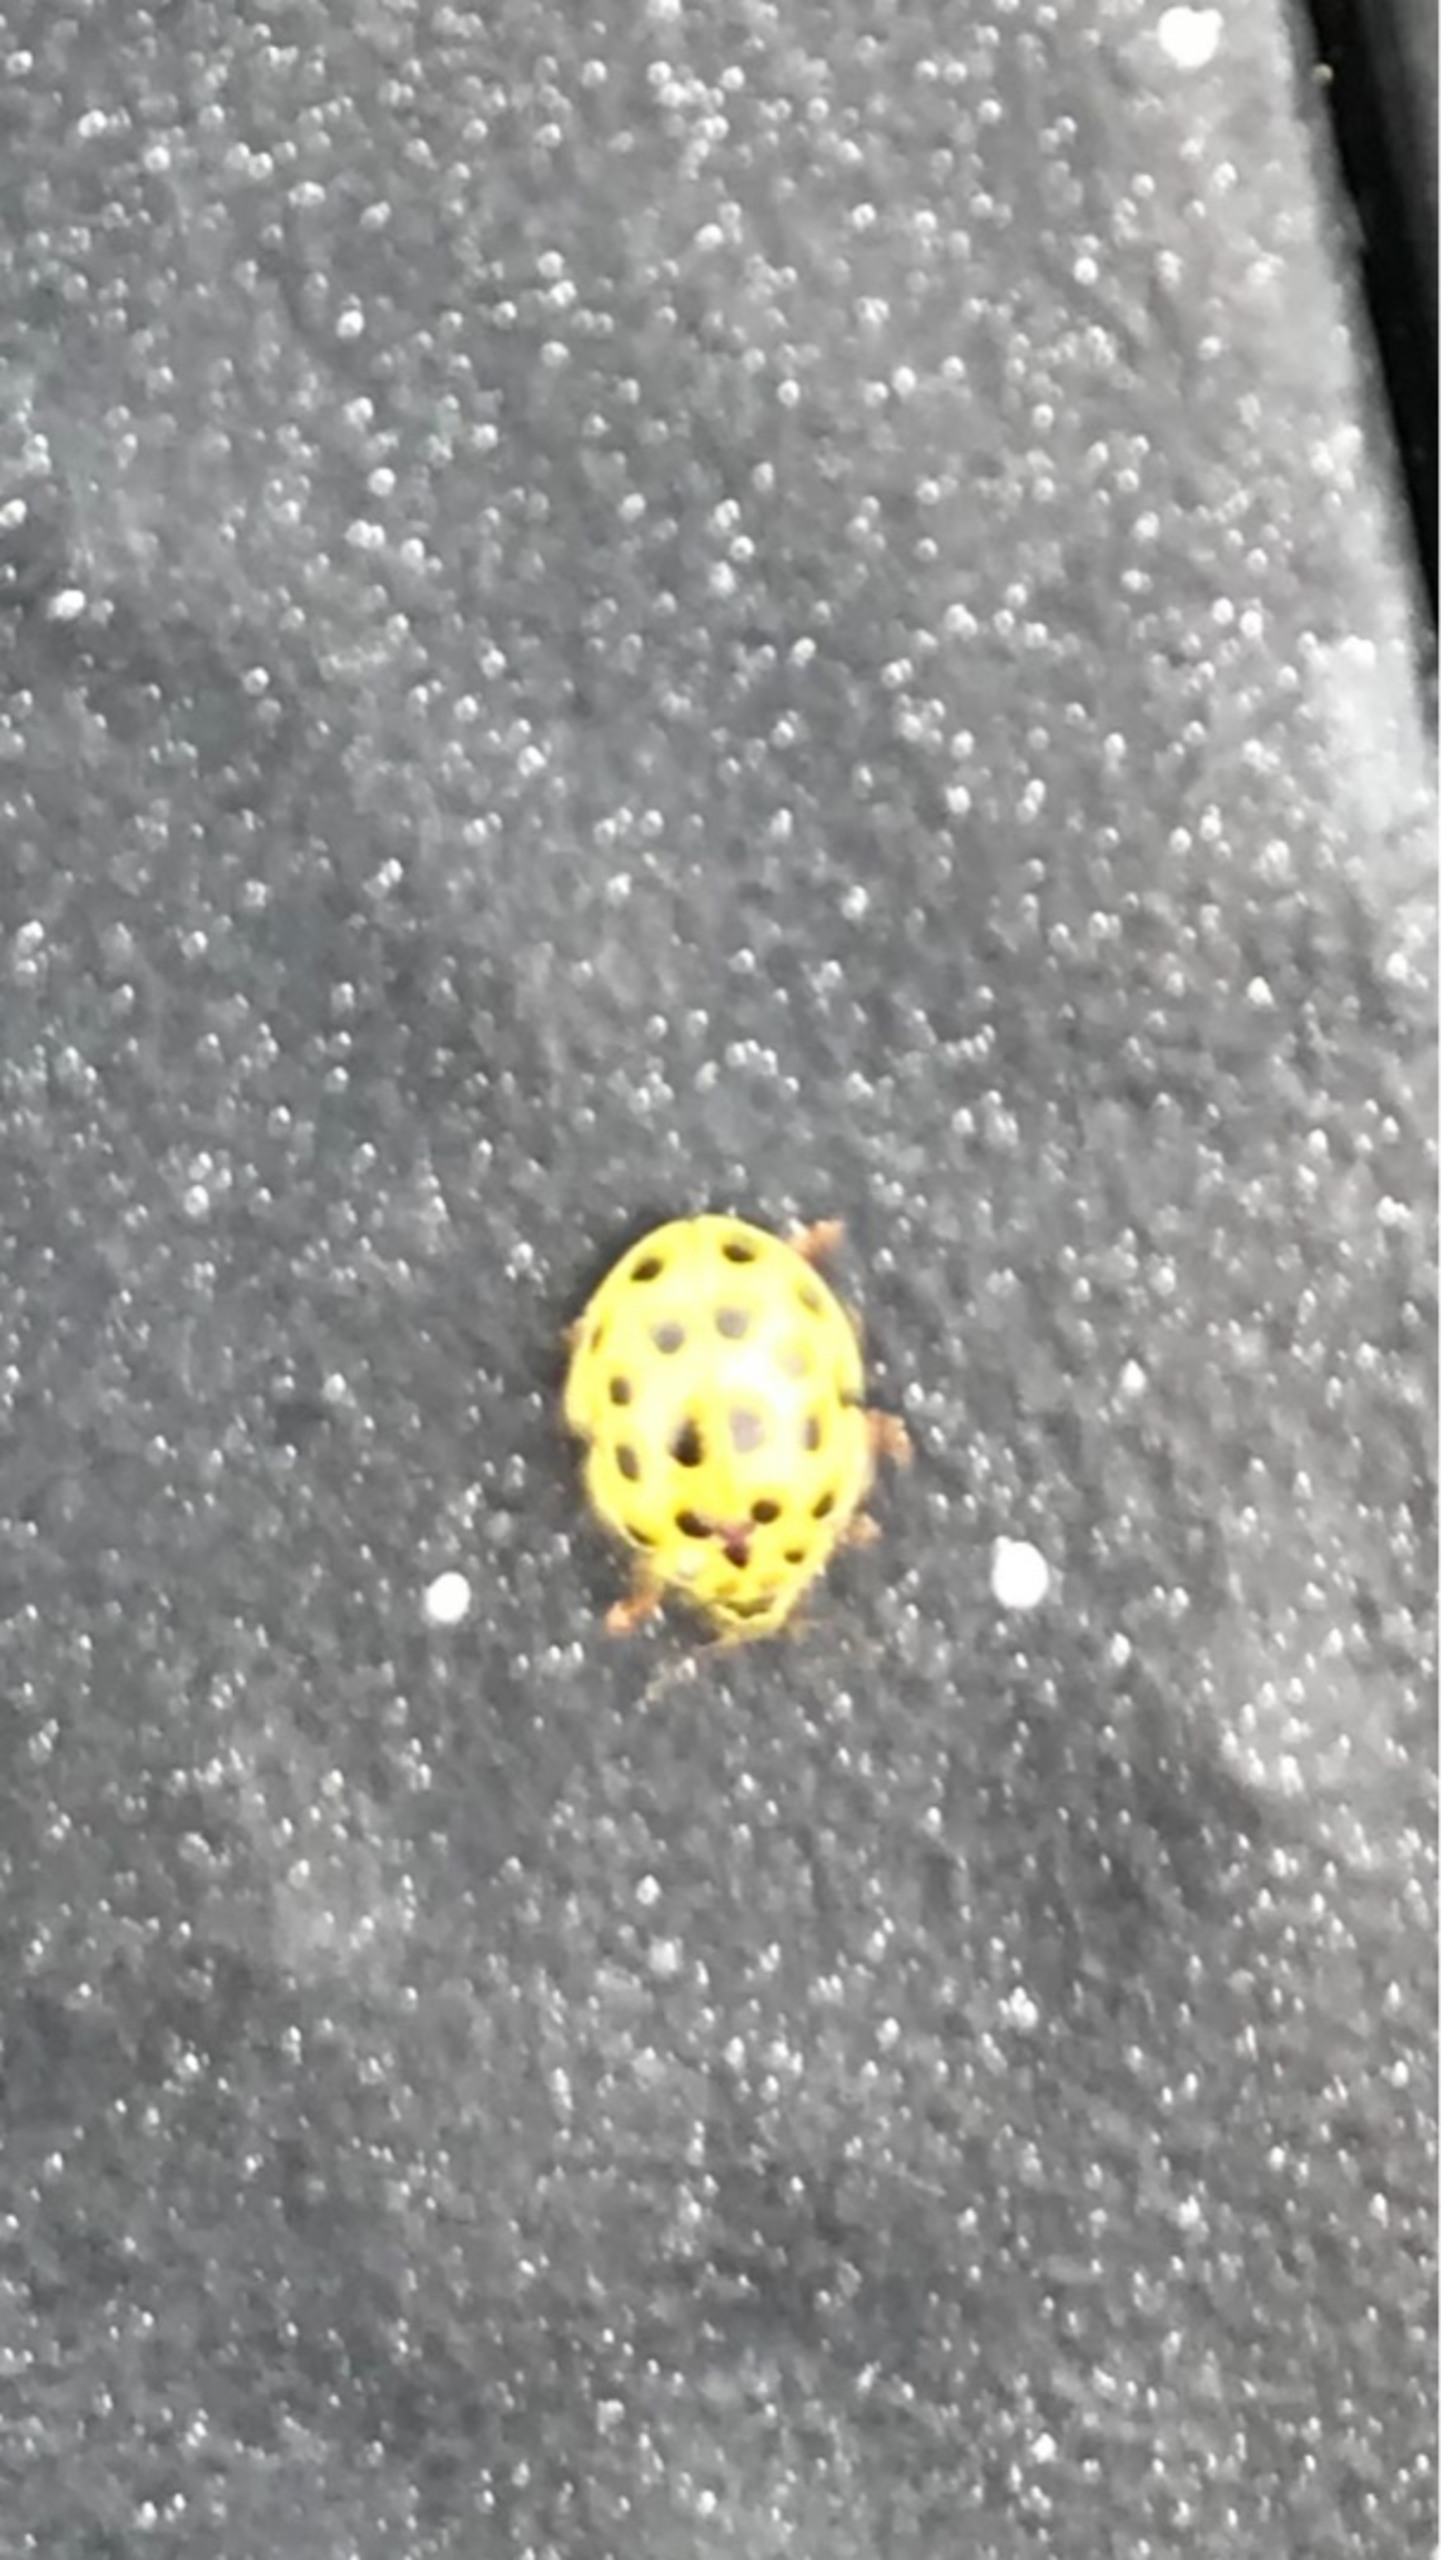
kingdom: Animalia
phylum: Arthropoda
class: Insecta
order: Coleoptera
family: Coccinellidae
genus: Psyllobora
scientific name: Psyllobora vigintiduopunctata
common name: Toogtyveplettet mariehøne
